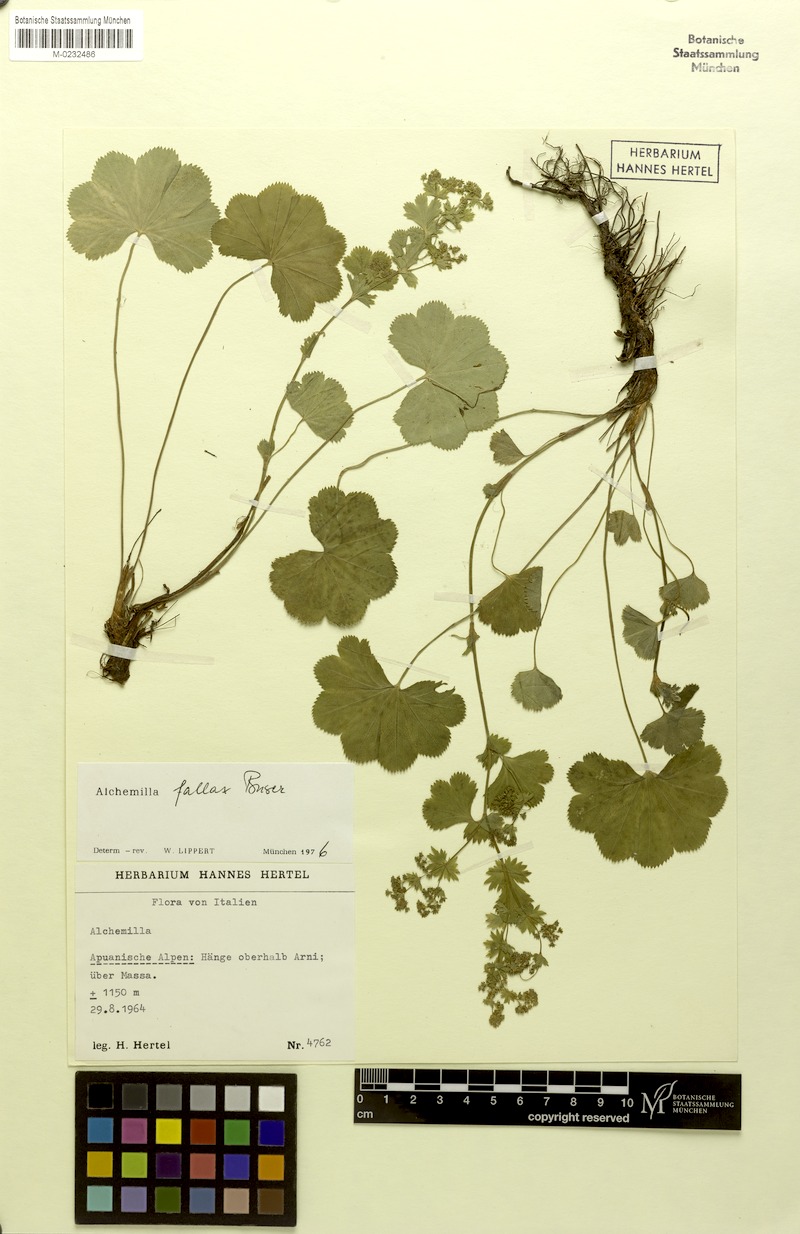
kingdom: Plantae
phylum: Tracheophyta
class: Magnoliopsida
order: Rosales
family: Rosaceae
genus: Alchemilla
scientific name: Alchemilla fallax
